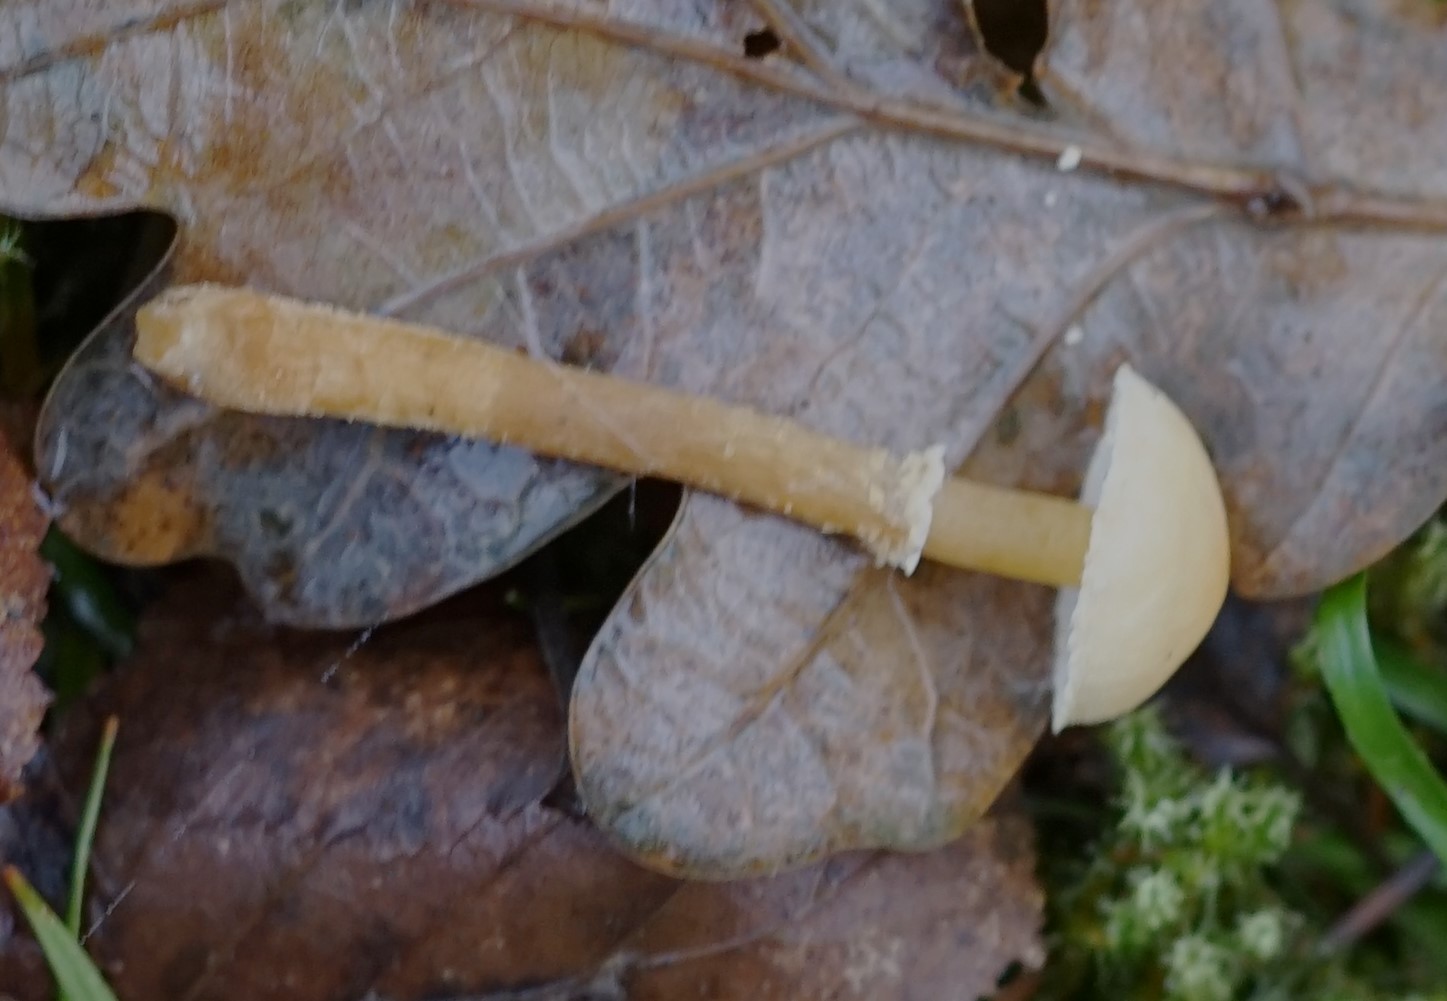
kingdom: Fungi
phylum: Basidiomycota
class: Agaricomycetes
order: Agaricales
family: Tricholomataceae
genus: Cystoderma
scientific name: Cystoderma amianthinum
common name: okkergul grynhat
